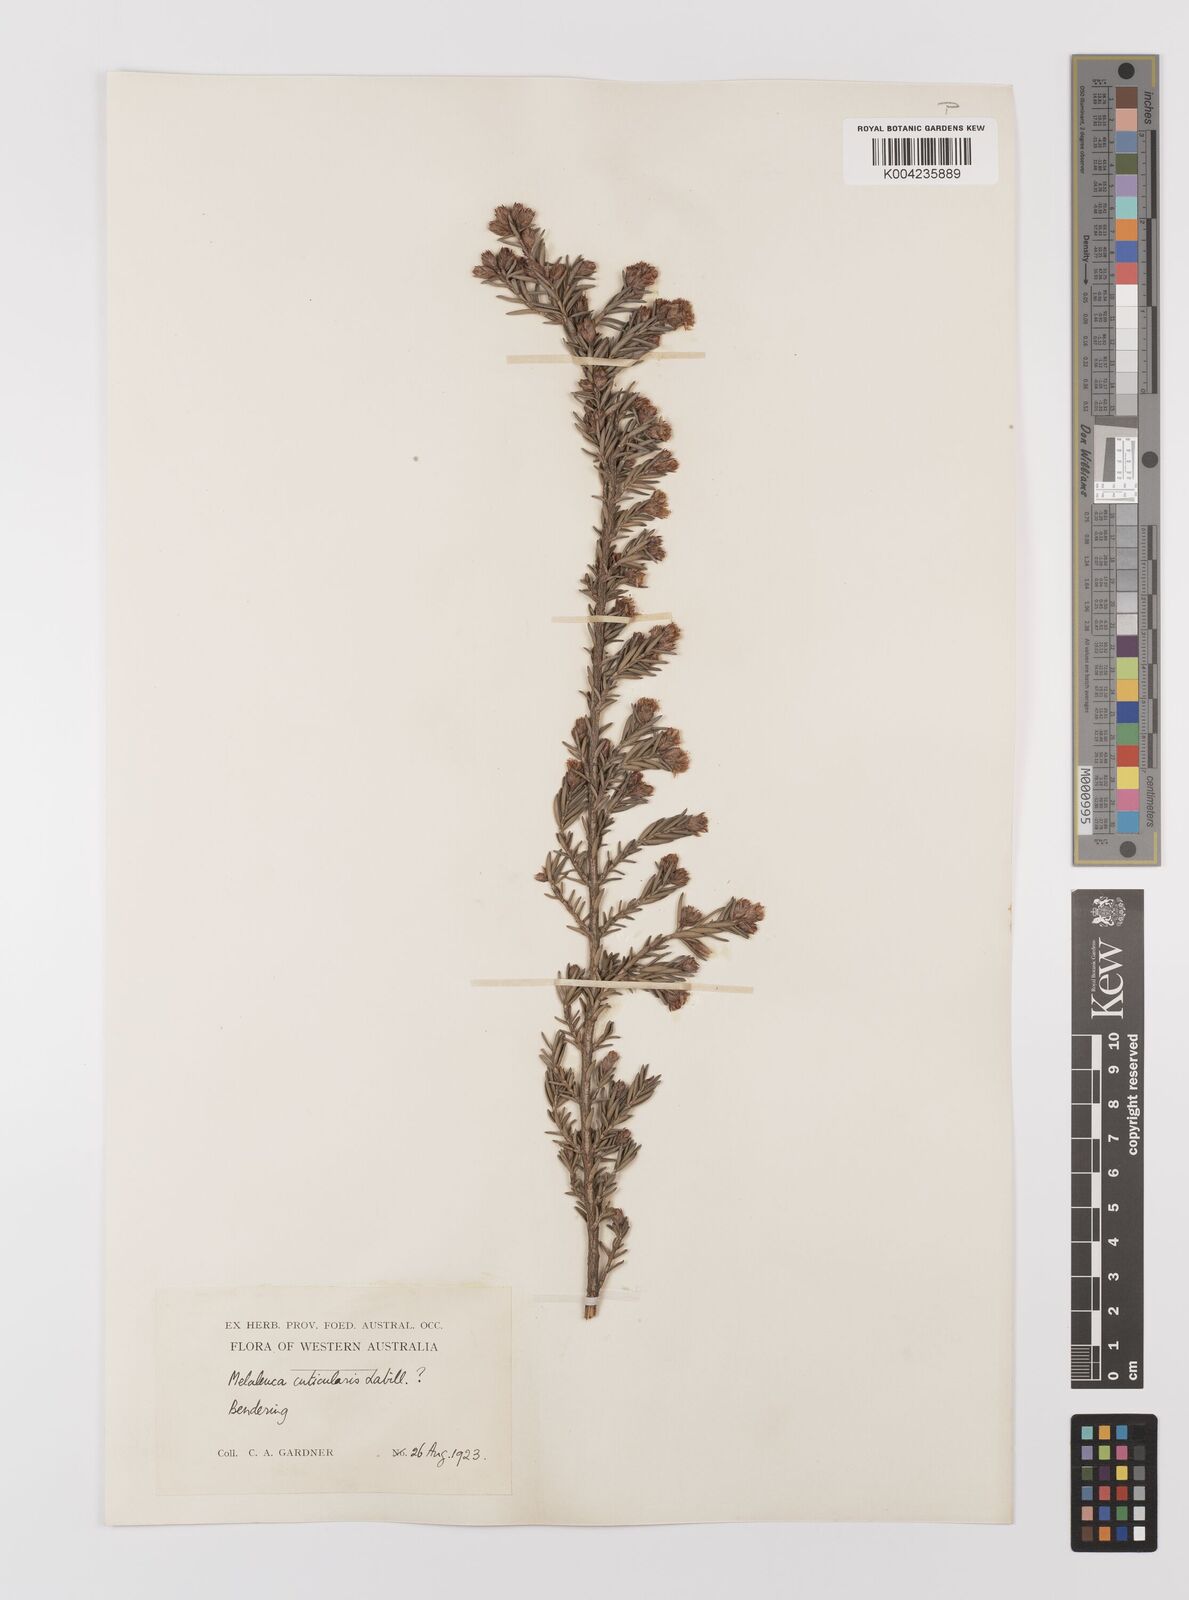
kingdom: Plantae
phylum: Tracheophyta
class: Magnoliopsida
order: Myrtales
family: Myrtaceae
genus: Melaleuca
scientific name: Melaleuca cuticularis
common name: Saltwater paperbark
